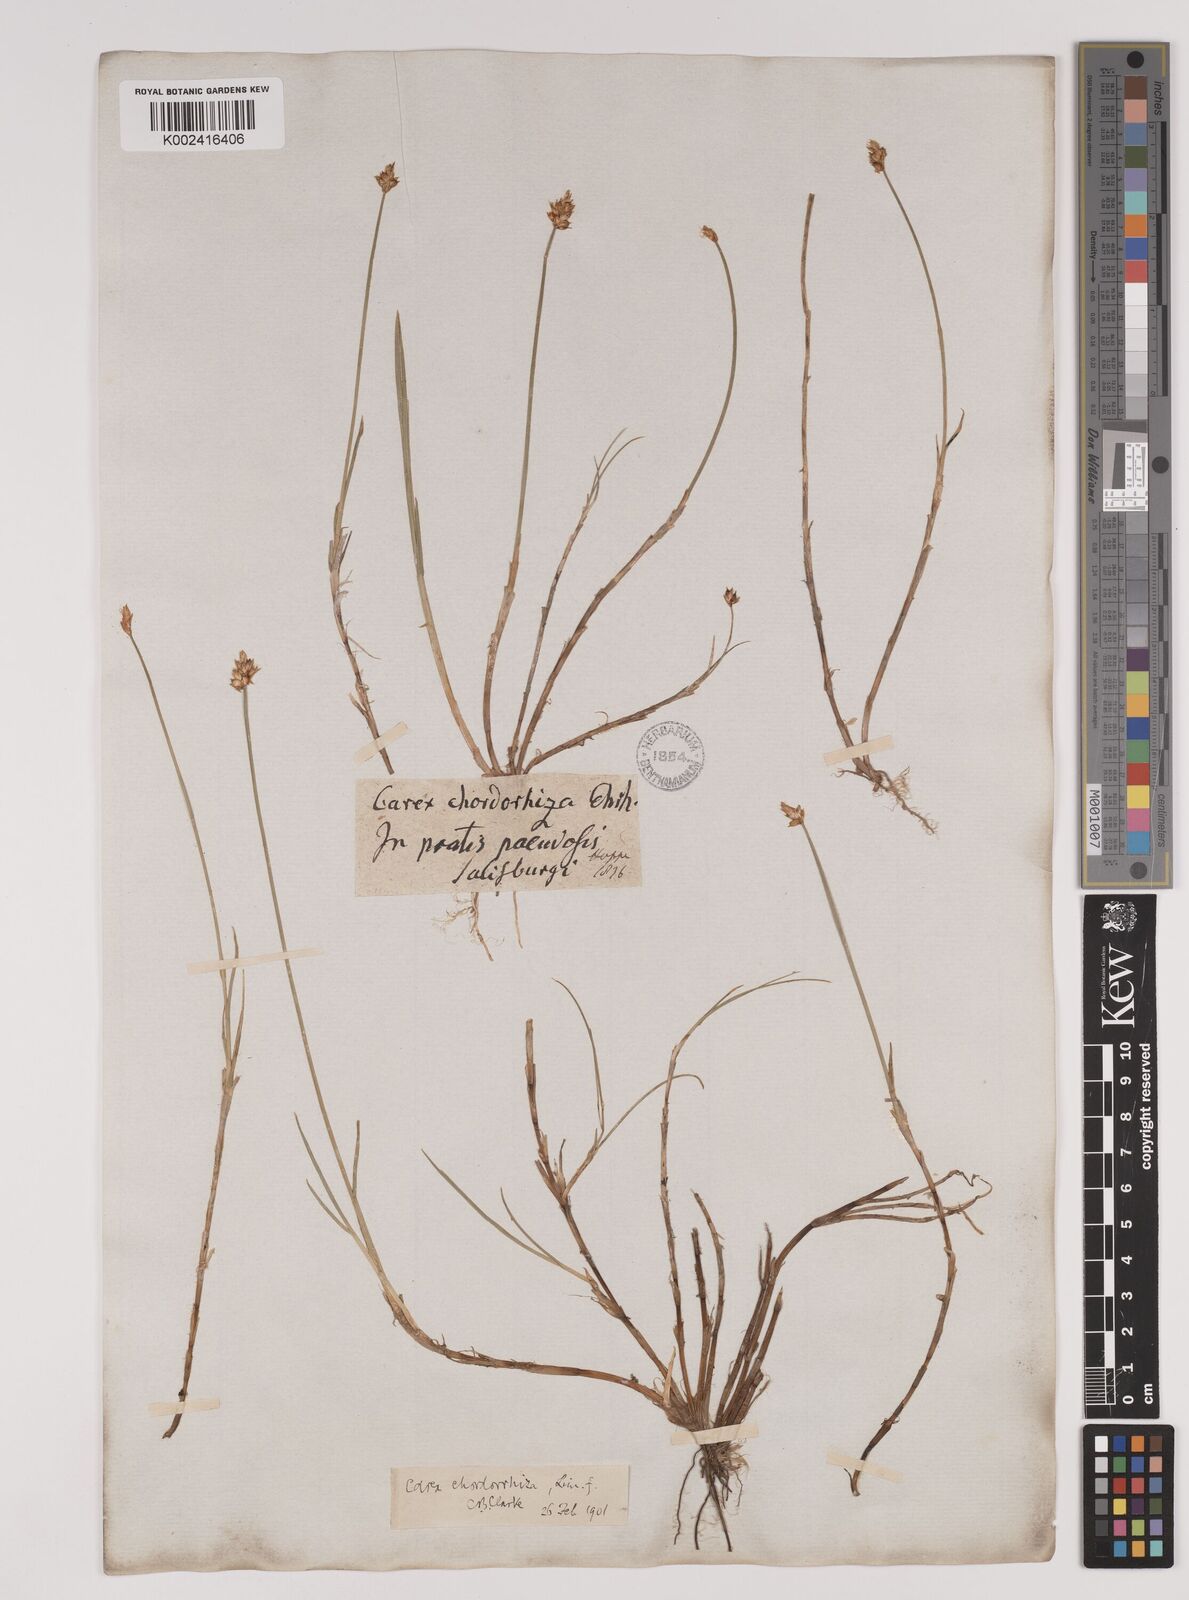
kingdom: Plantae
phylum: Tracheophyta
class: Liliopsida
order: Poales
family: Cyperaceae
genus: Carex
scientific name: Carex chordorrhiza
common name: String sedge
